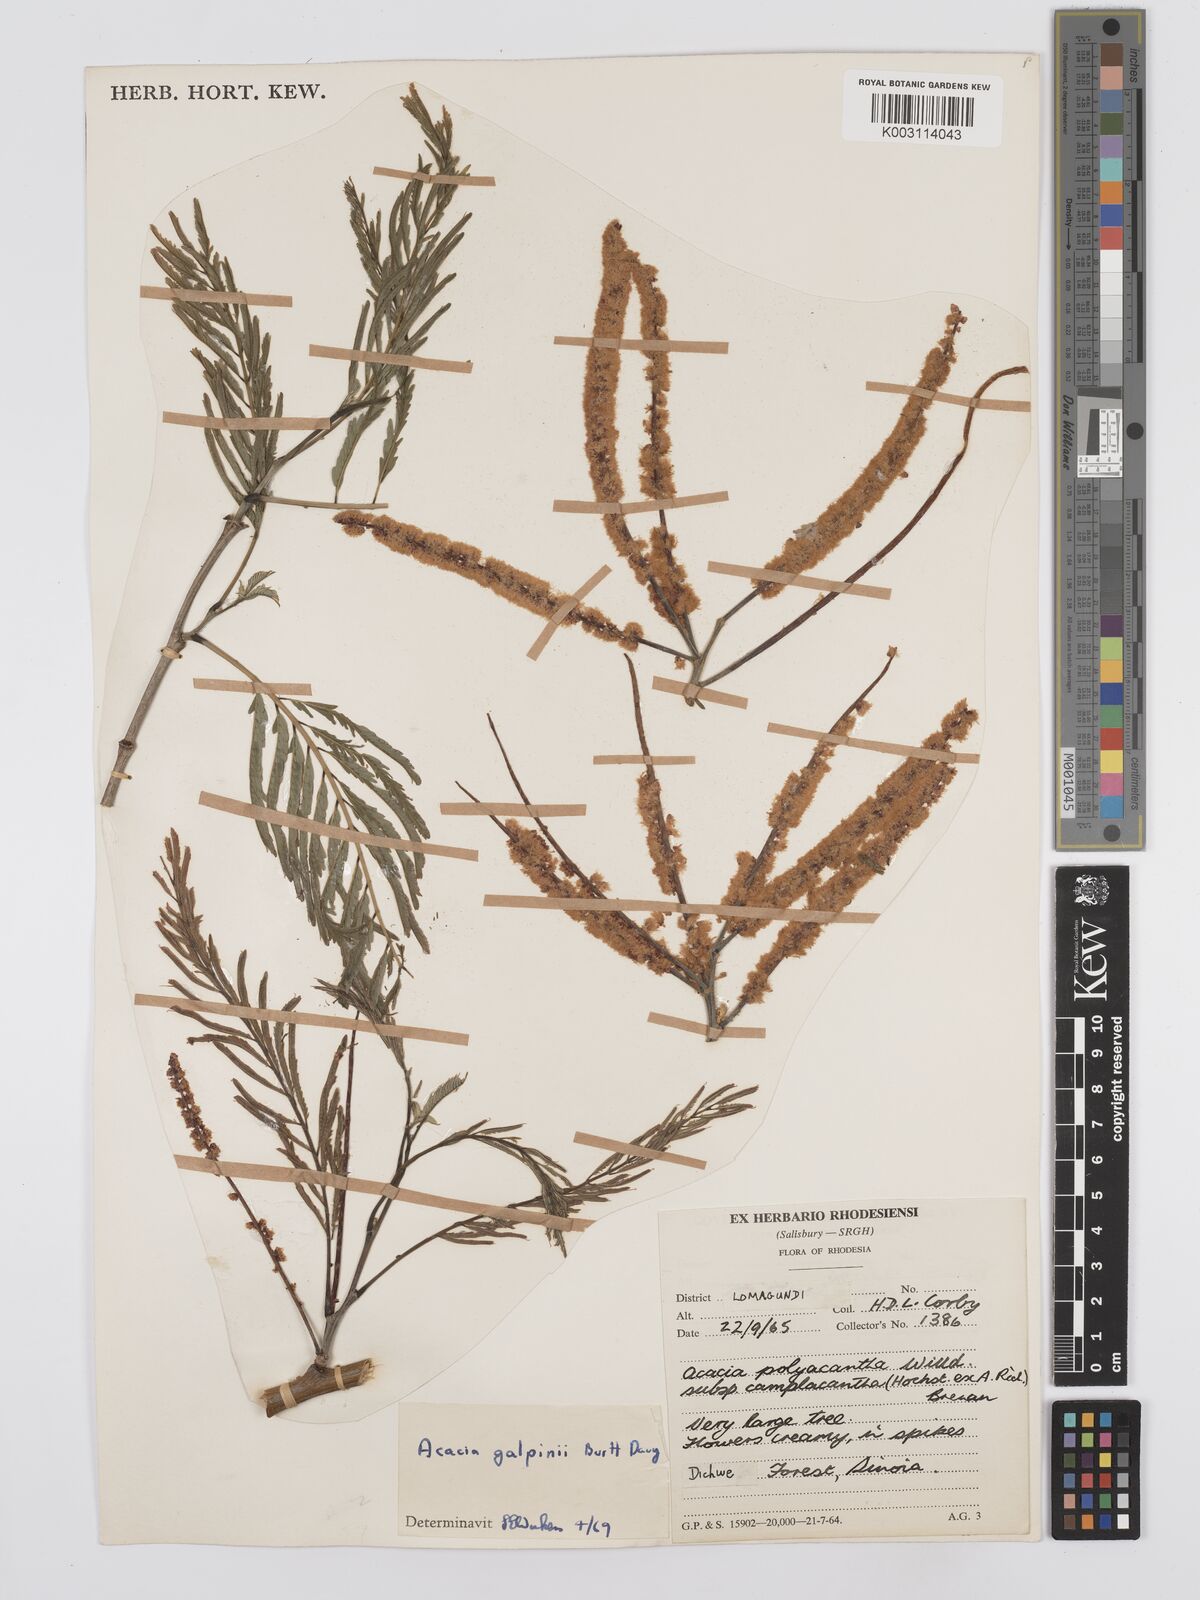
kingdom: Plantae
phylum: Tracheophyta
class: Magnoliopsida
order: Fabales
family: Fabaceae
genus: Senegalia
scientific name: Senegalia galpinii
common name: Monkey-thorn
